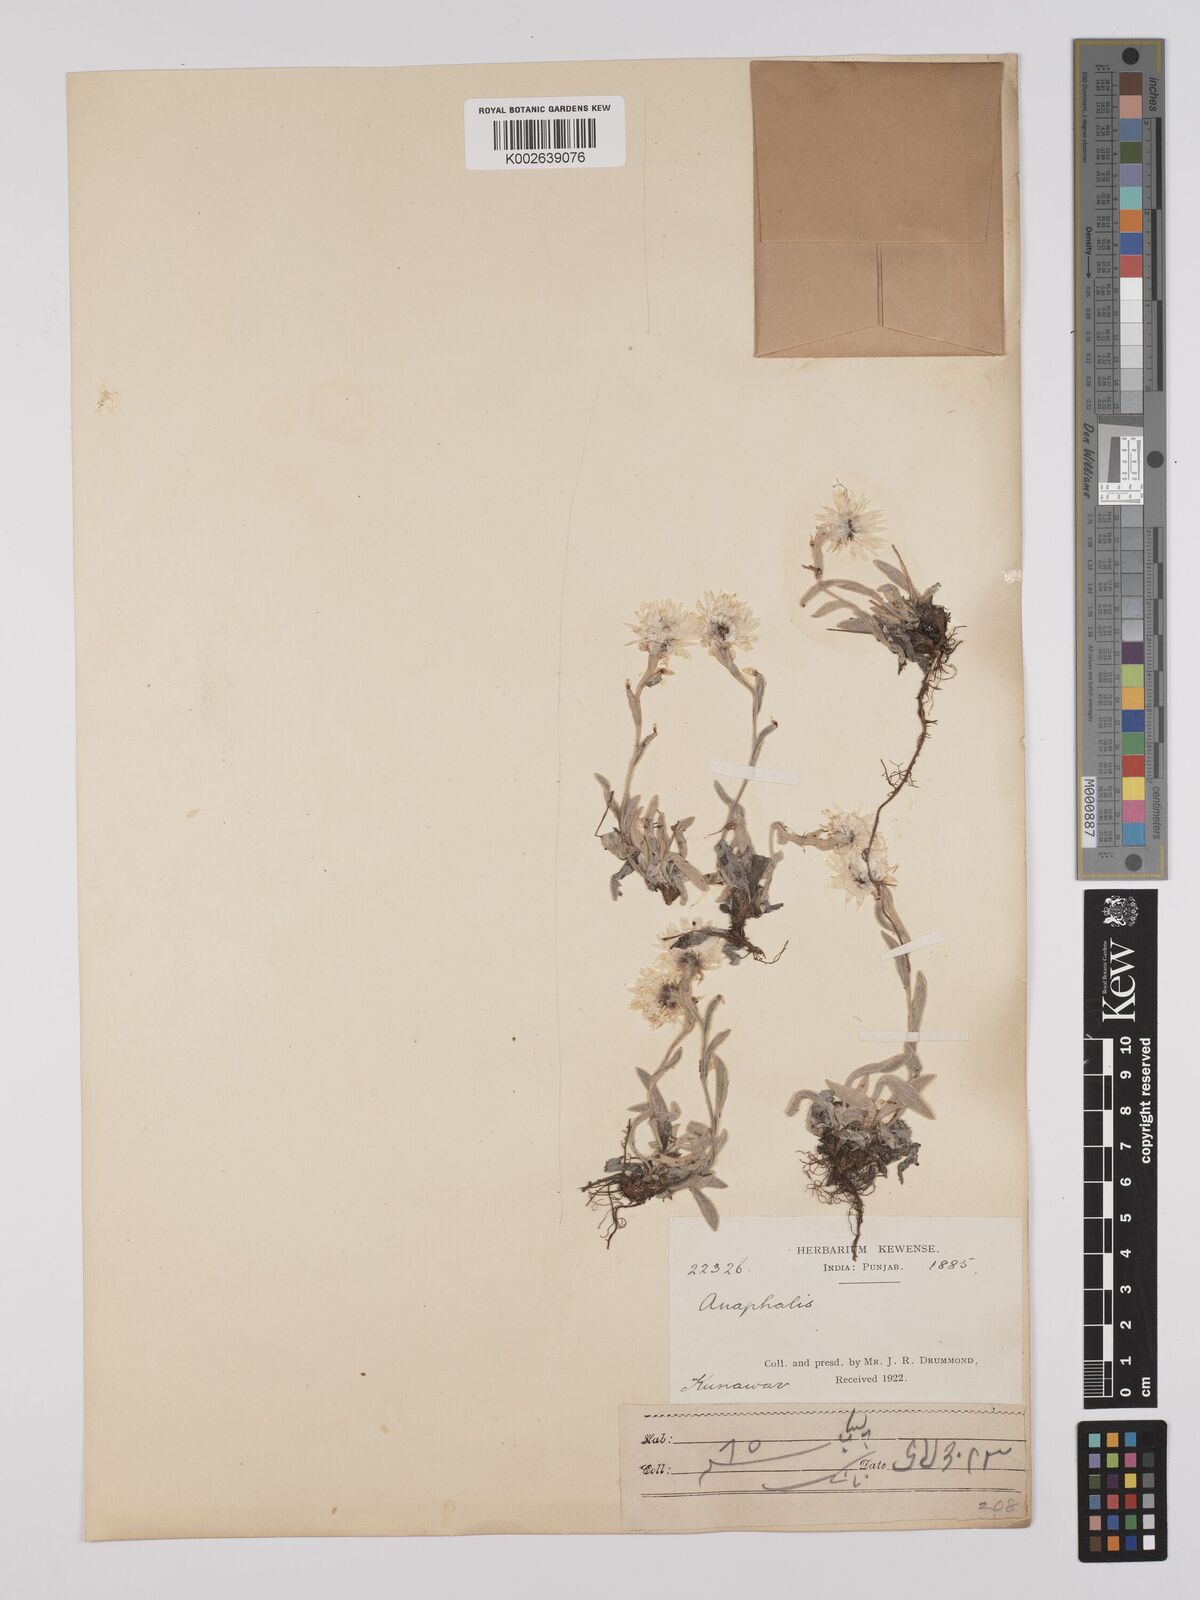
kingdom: Plantae
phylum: Tracheophyta
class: Magnoliopsida
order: Asterales
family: Asteraceae
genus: Anaphalis
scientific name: Anaphalis nepalensis
